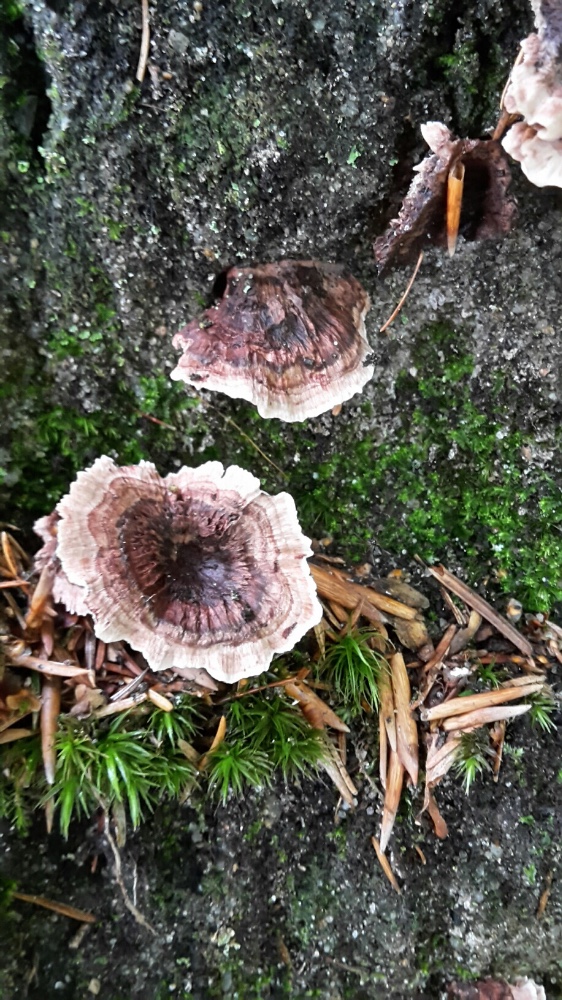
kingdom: Fungi
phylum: Basidiomycota
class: Agaricomycetes
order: Thelephorales
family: Bankeraceae
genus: Hydnellum
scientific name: Hydnellum concrescens
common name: bæltet korkpigsvamp
